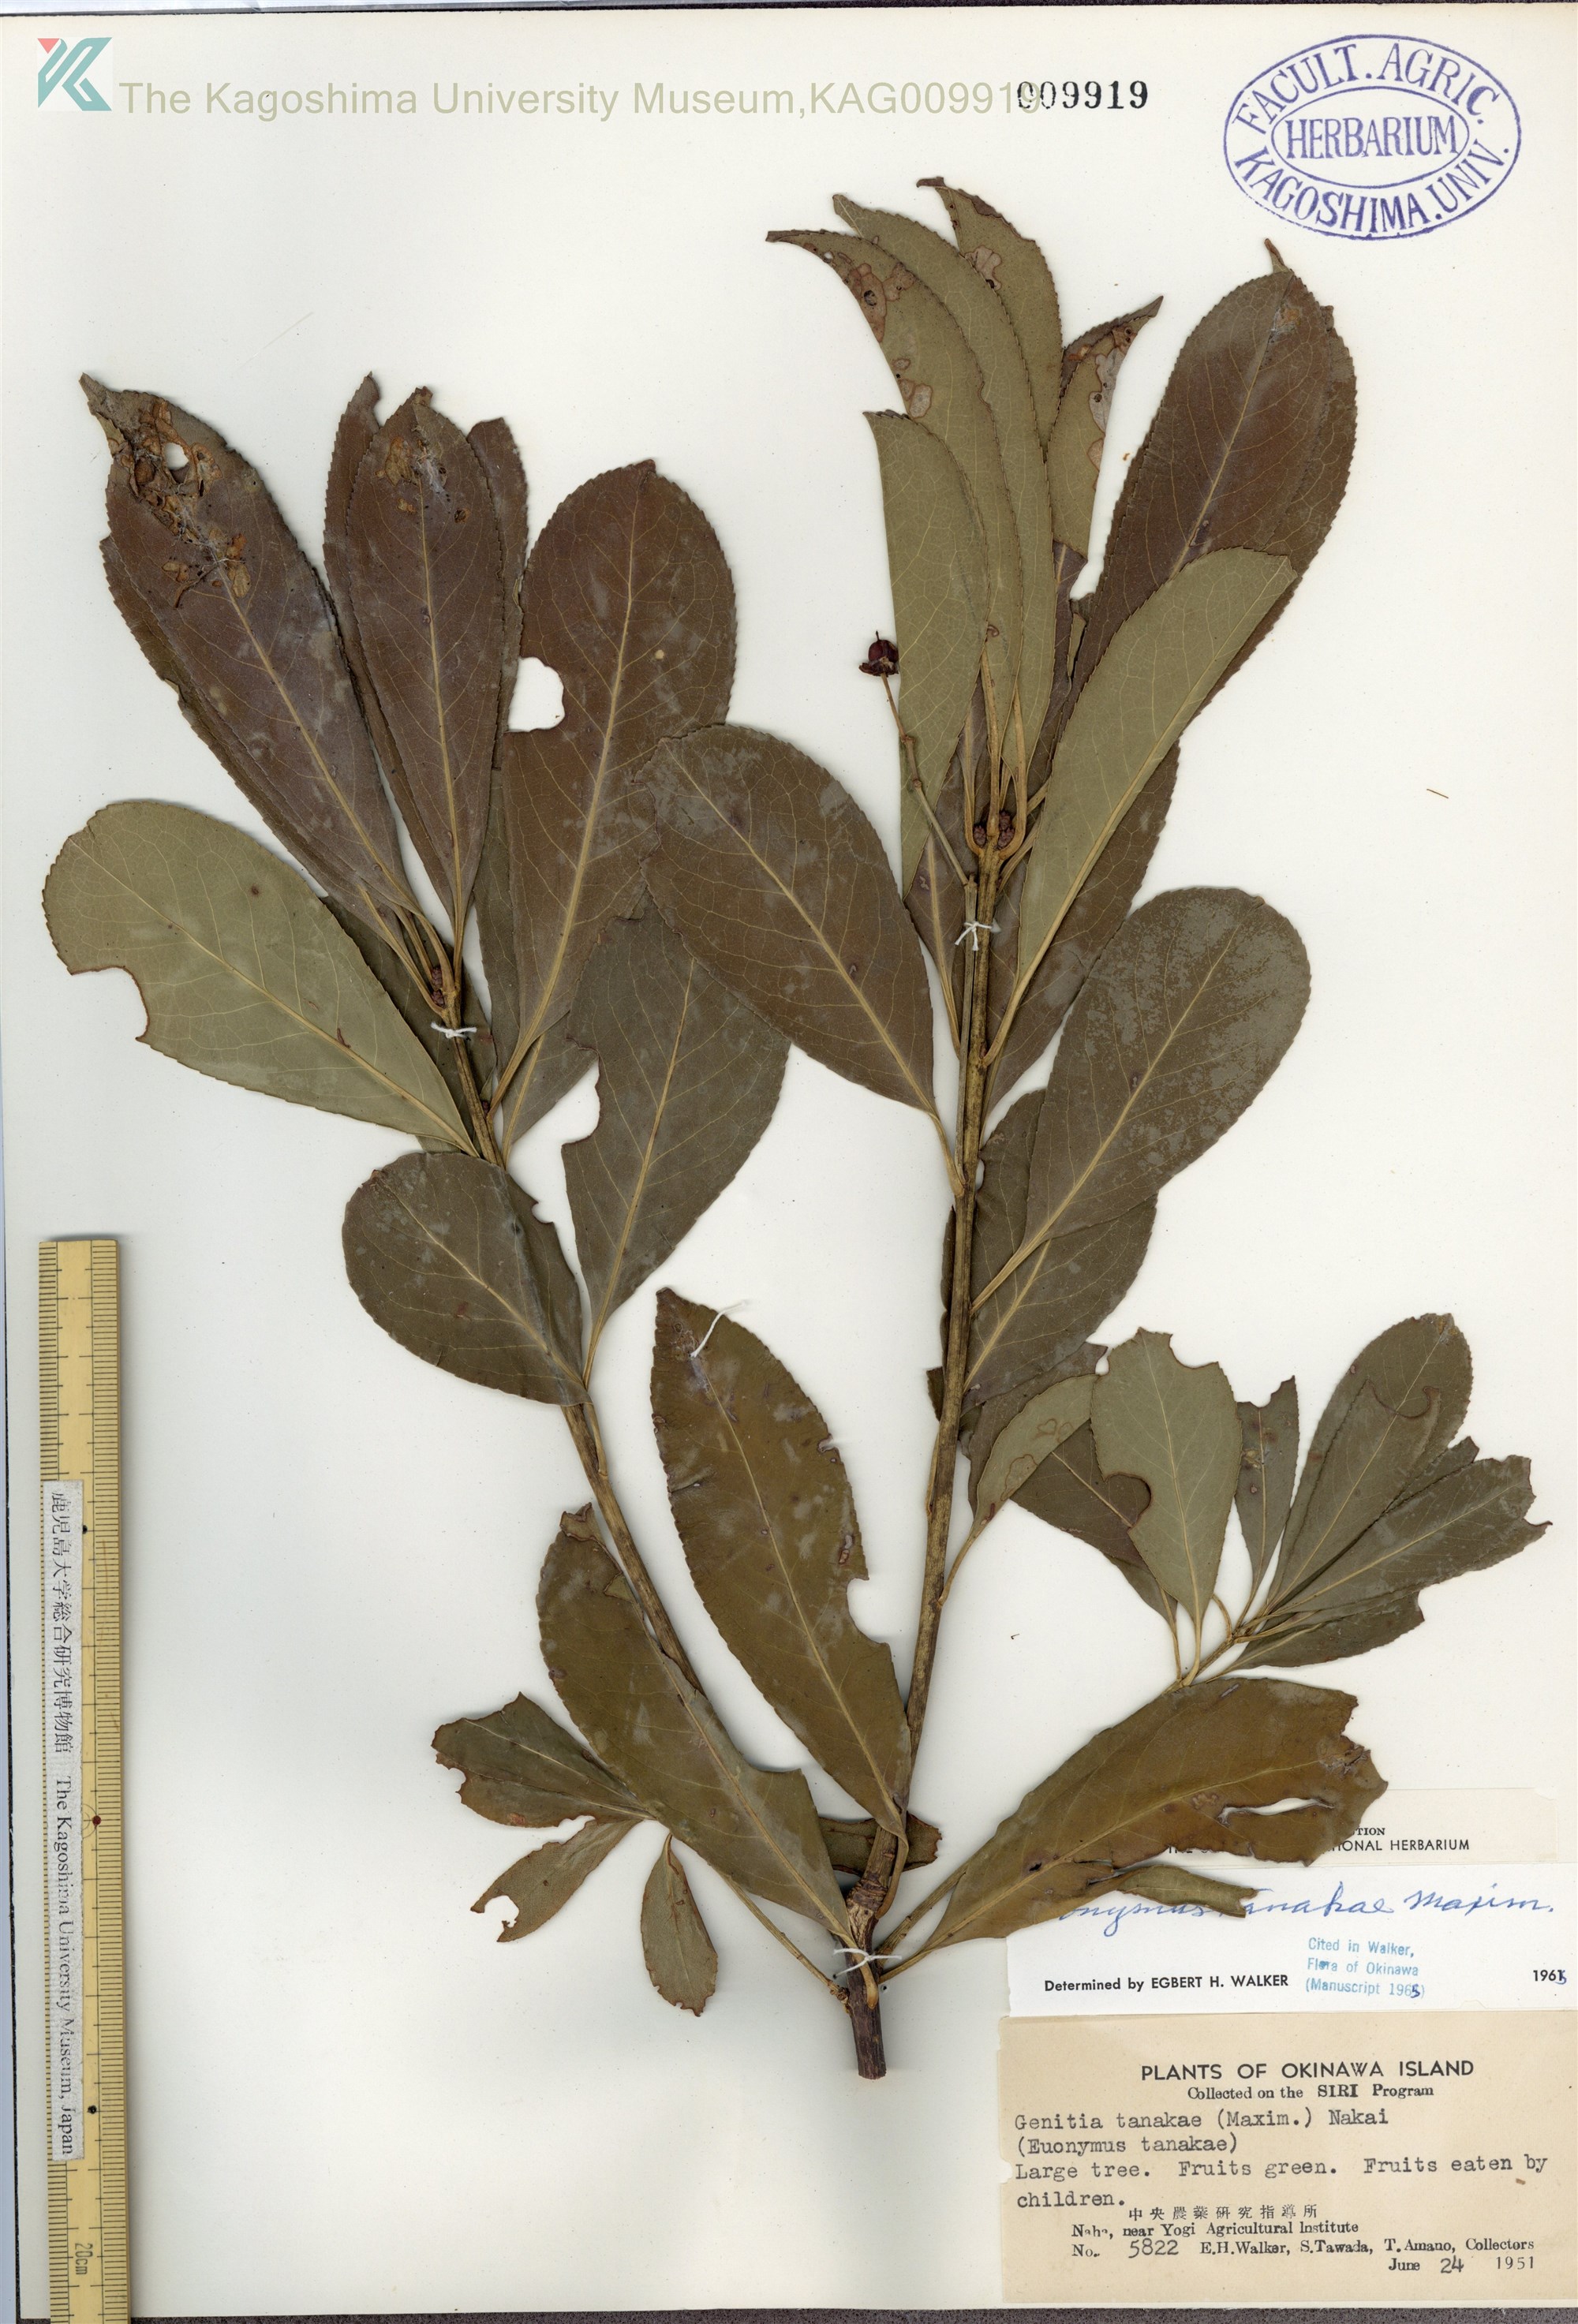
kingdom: Plantae
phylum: Tracheophyta
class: Magnoliopsida
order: Celastrales
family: Celastraceae
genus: Euonymus
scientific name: Euonymus carnosus
